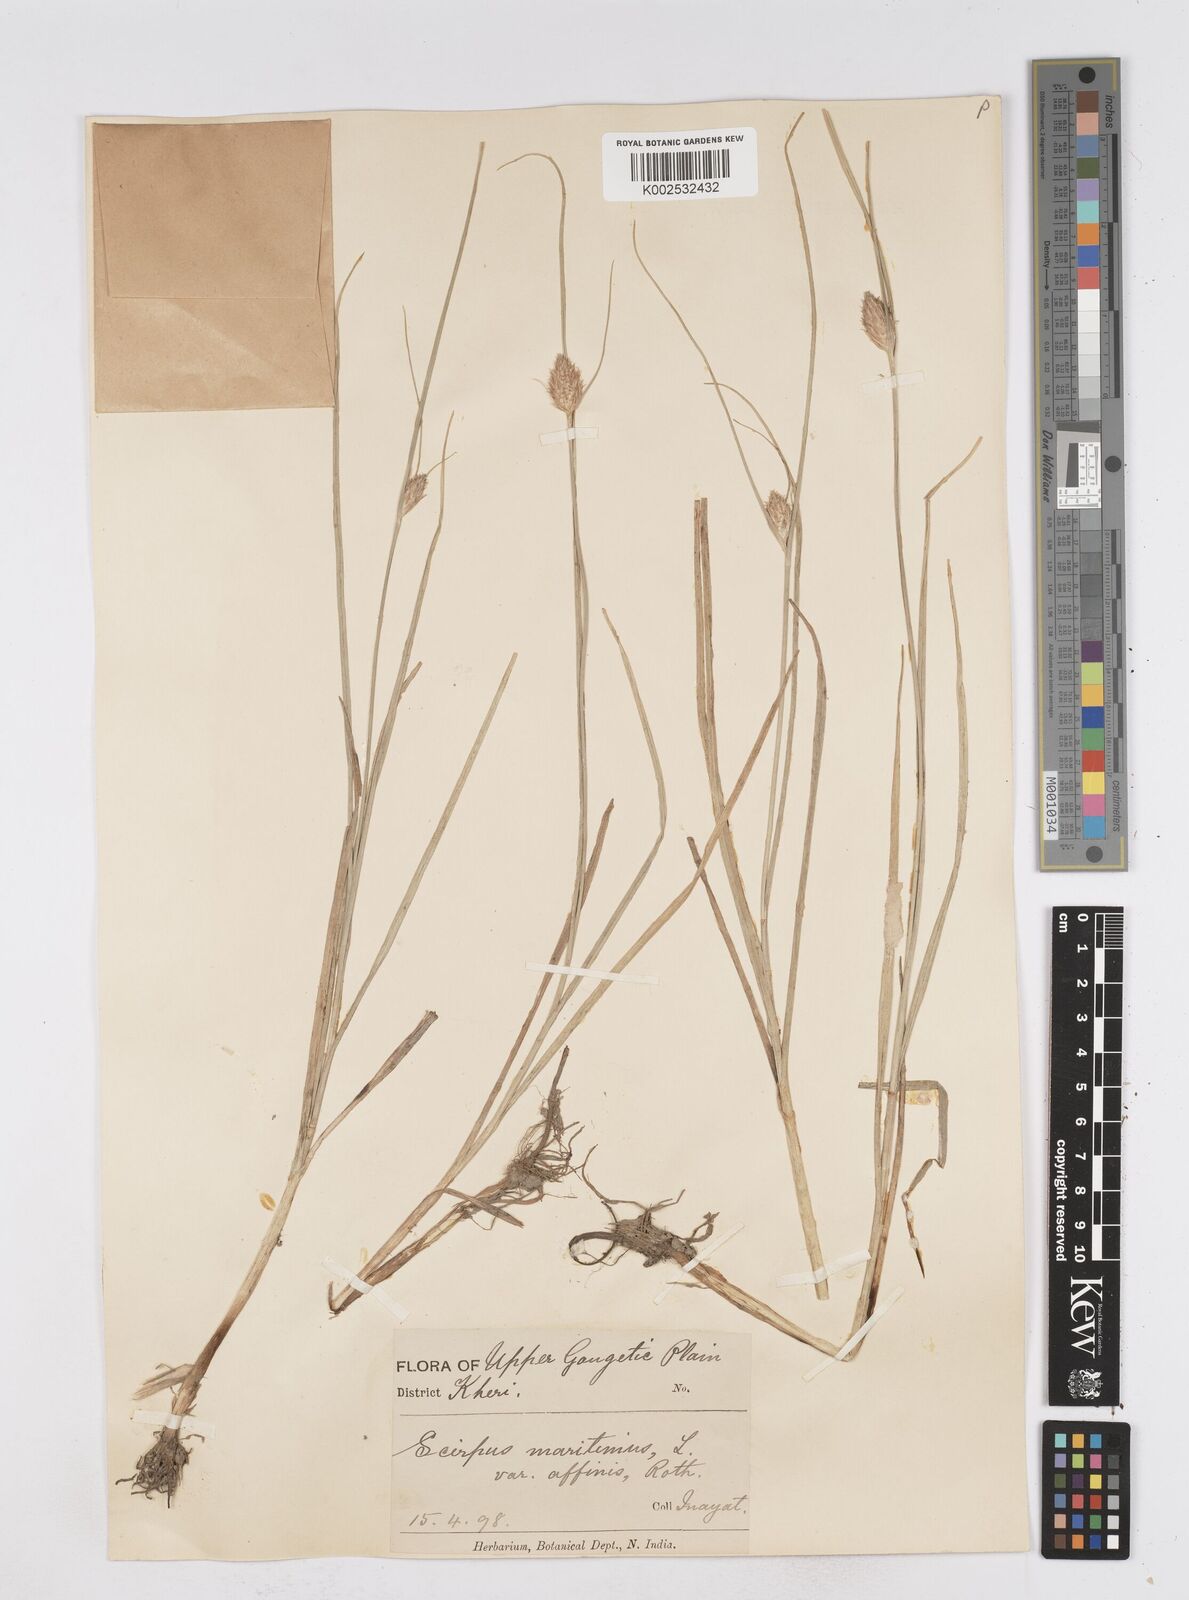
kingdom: Plantae
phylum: Tracheophyta
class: Liliopsida
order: Poales
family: Cyperaceae
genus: Bolboschoenus
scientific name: Bolboschoenus maritimus
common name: Sea club-rush
